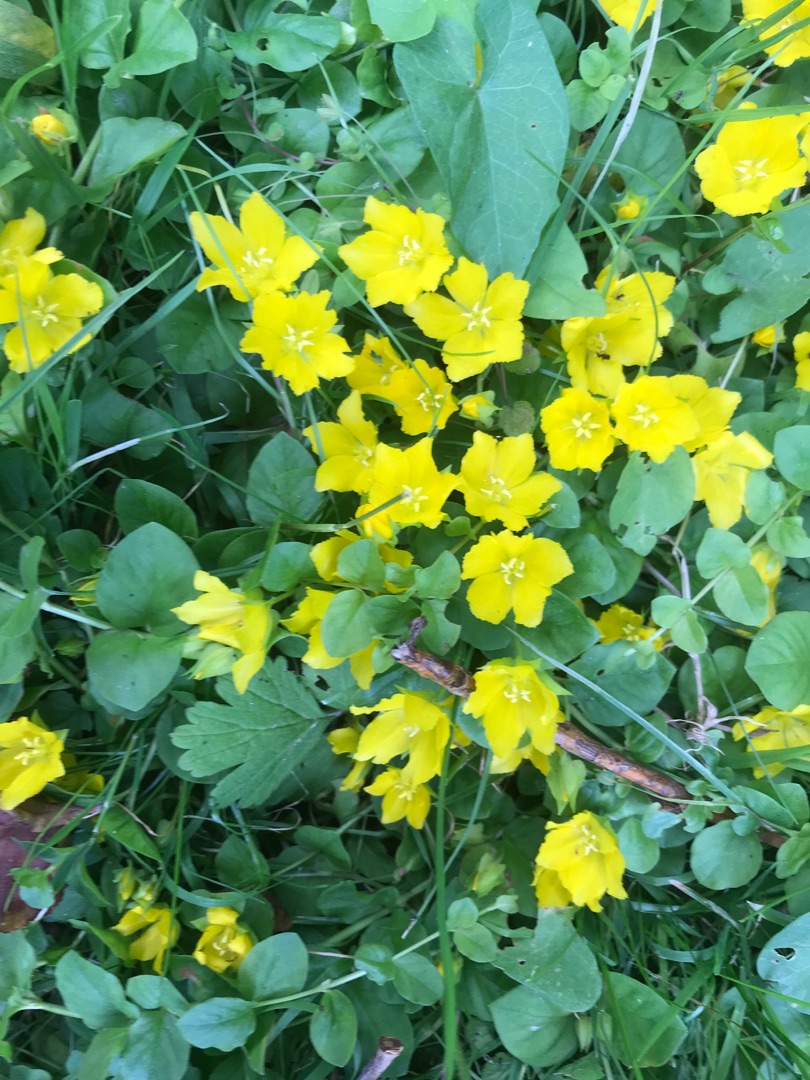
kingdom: Plantae
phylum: Tracheophyta
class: Magnoliopsida
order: Ericales
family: Primulaceae
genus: Lysimachia
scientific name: Lysimachia nummularia
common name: Pengebladet fredløs
